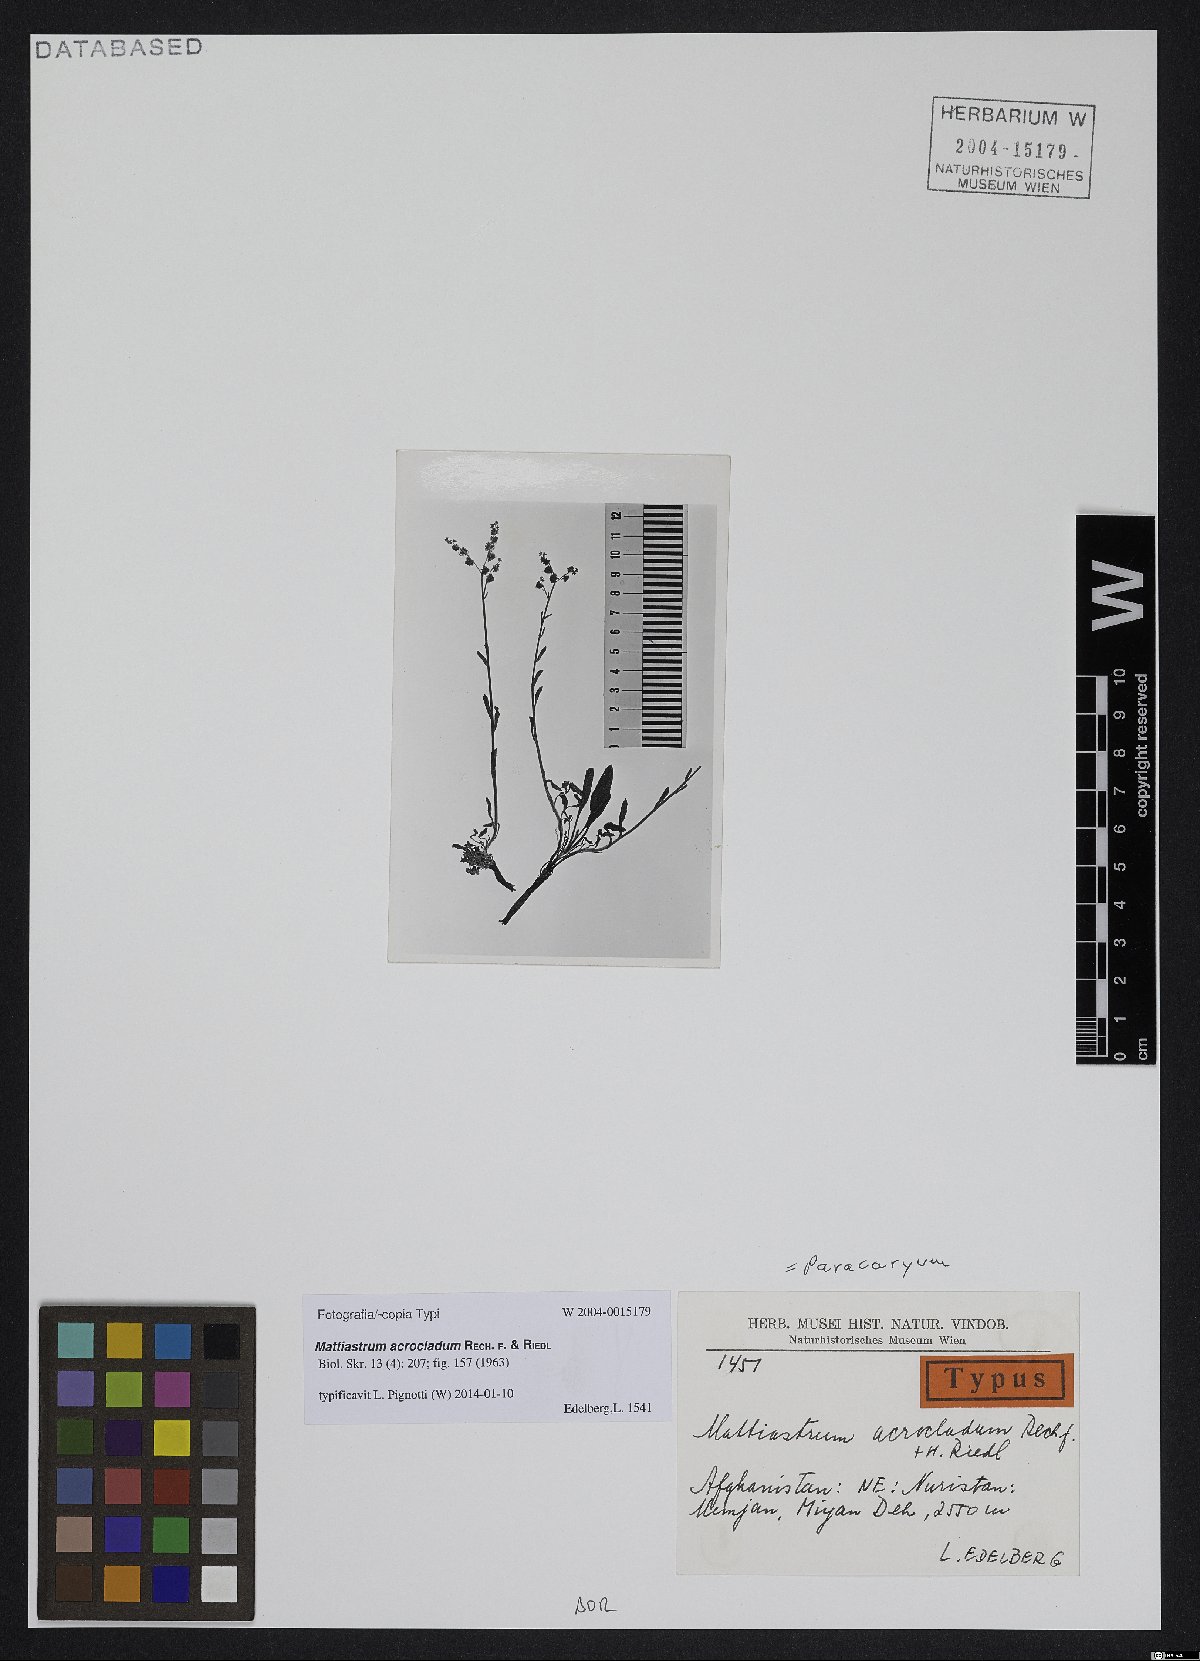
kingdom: Plantae
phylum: Tracheophyta
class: Magnoliopsida
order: Boraginales
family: Boraginaceae
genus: Paracaryum
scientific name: Paracaryum himalayense
